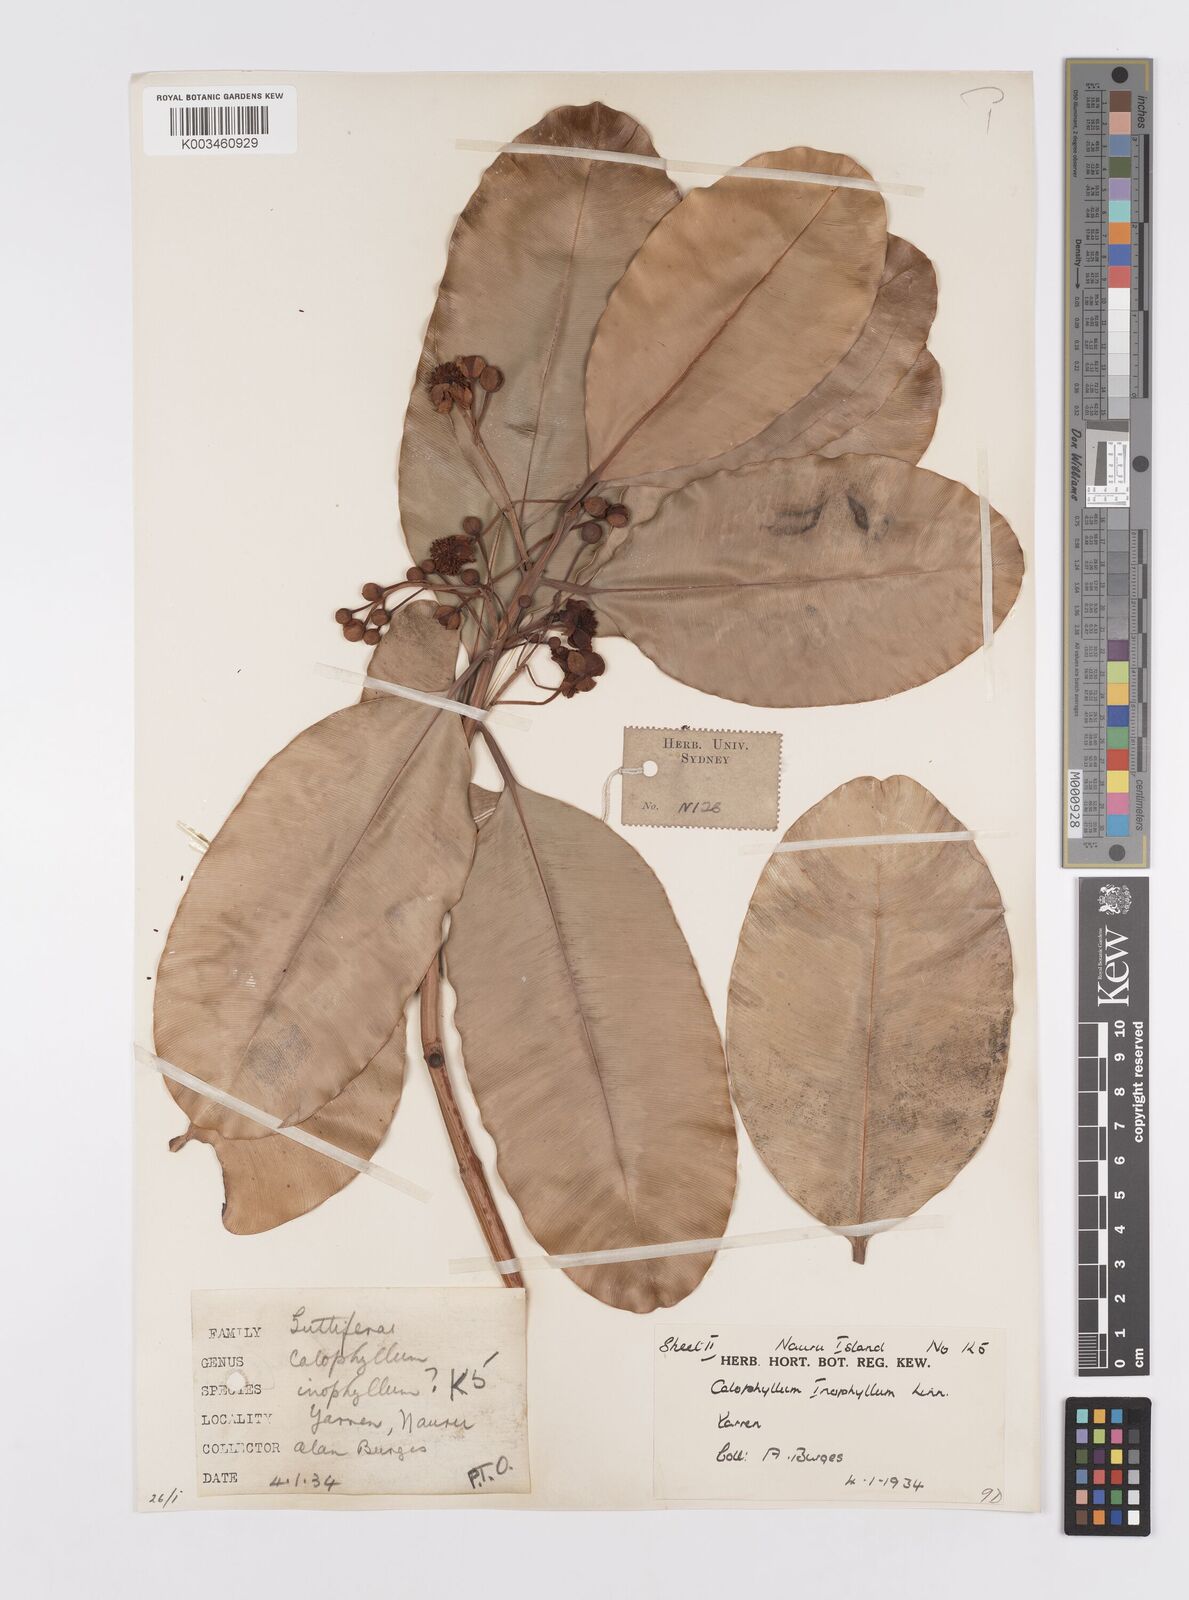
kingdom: Plantae
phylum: Tracheophyta
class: Magnoliopsida
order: Malpighiales
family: Calophyllaceae
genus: Calophyllum
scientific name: Calophyllum inophyllum
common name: Alexandrian laurel
